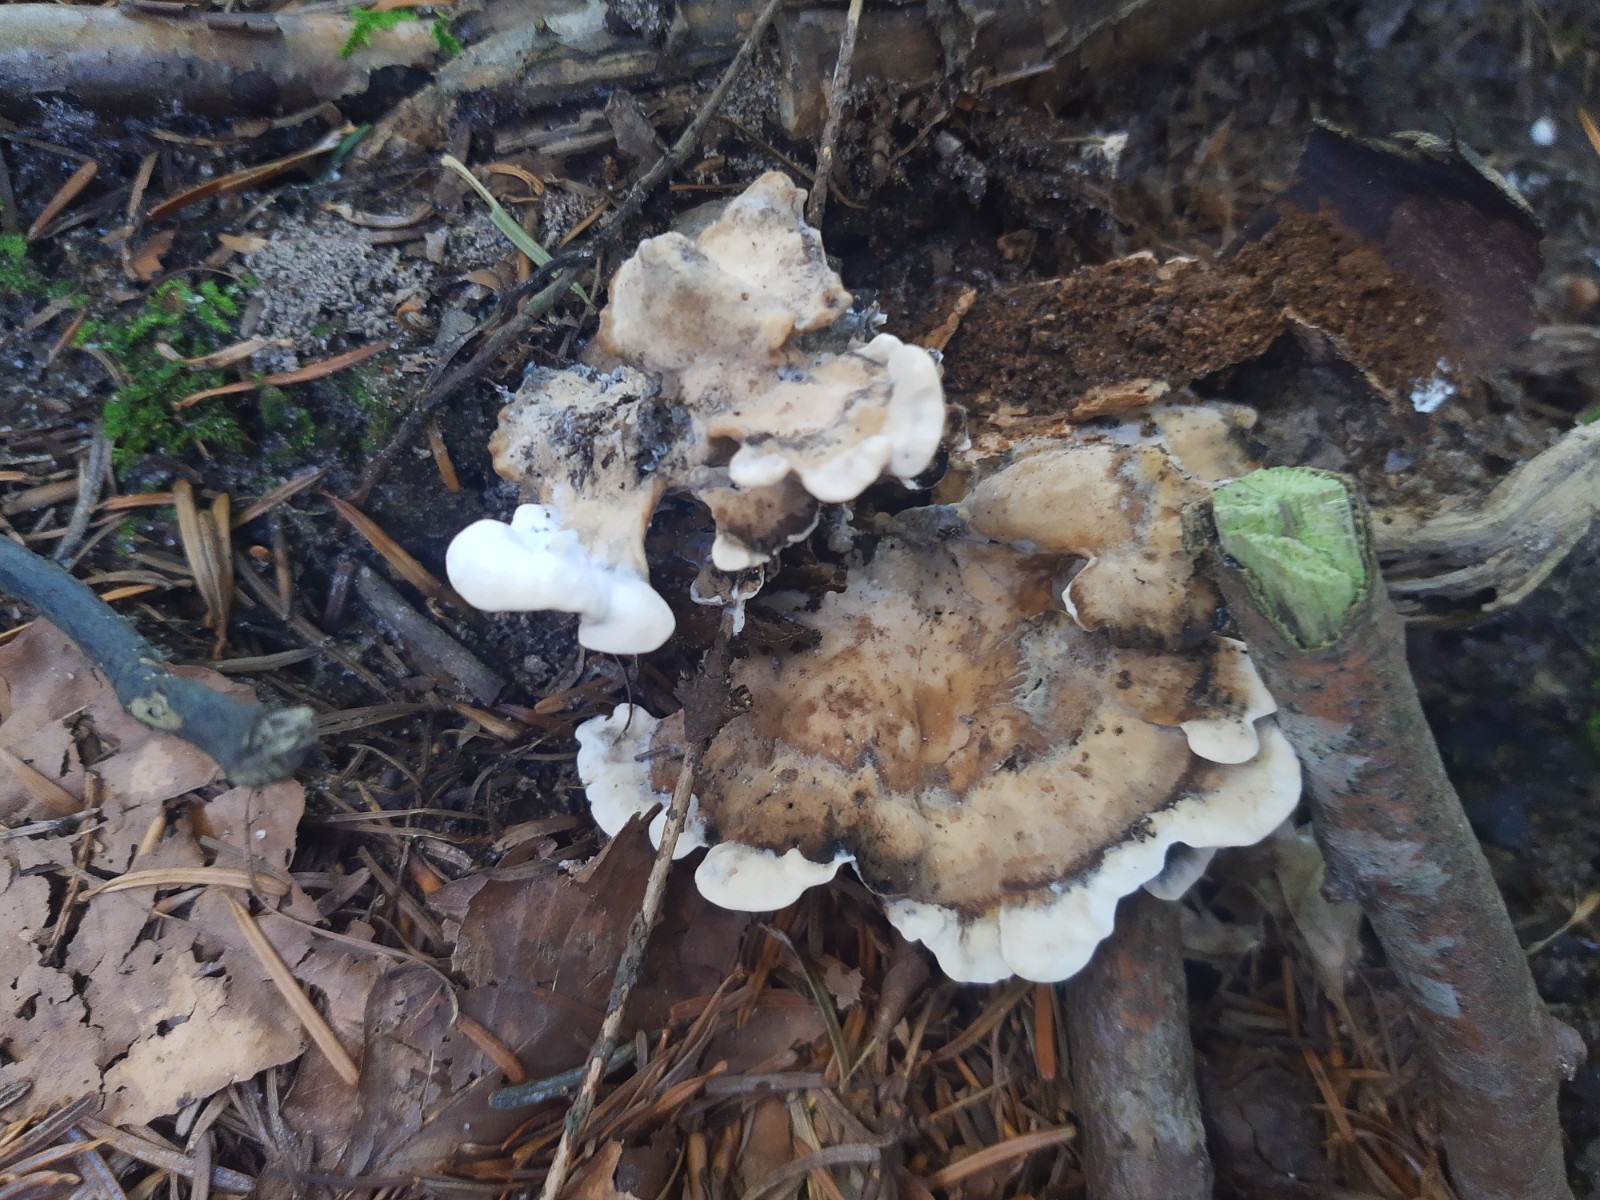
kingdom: Fungi
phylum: Basidiomycota
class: Agaricomycetes
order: Polyporales
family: Phanerochaetaceae
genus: Bjerkandera
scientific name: Bjerkandera adusta
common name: sveden sodporesvamp
